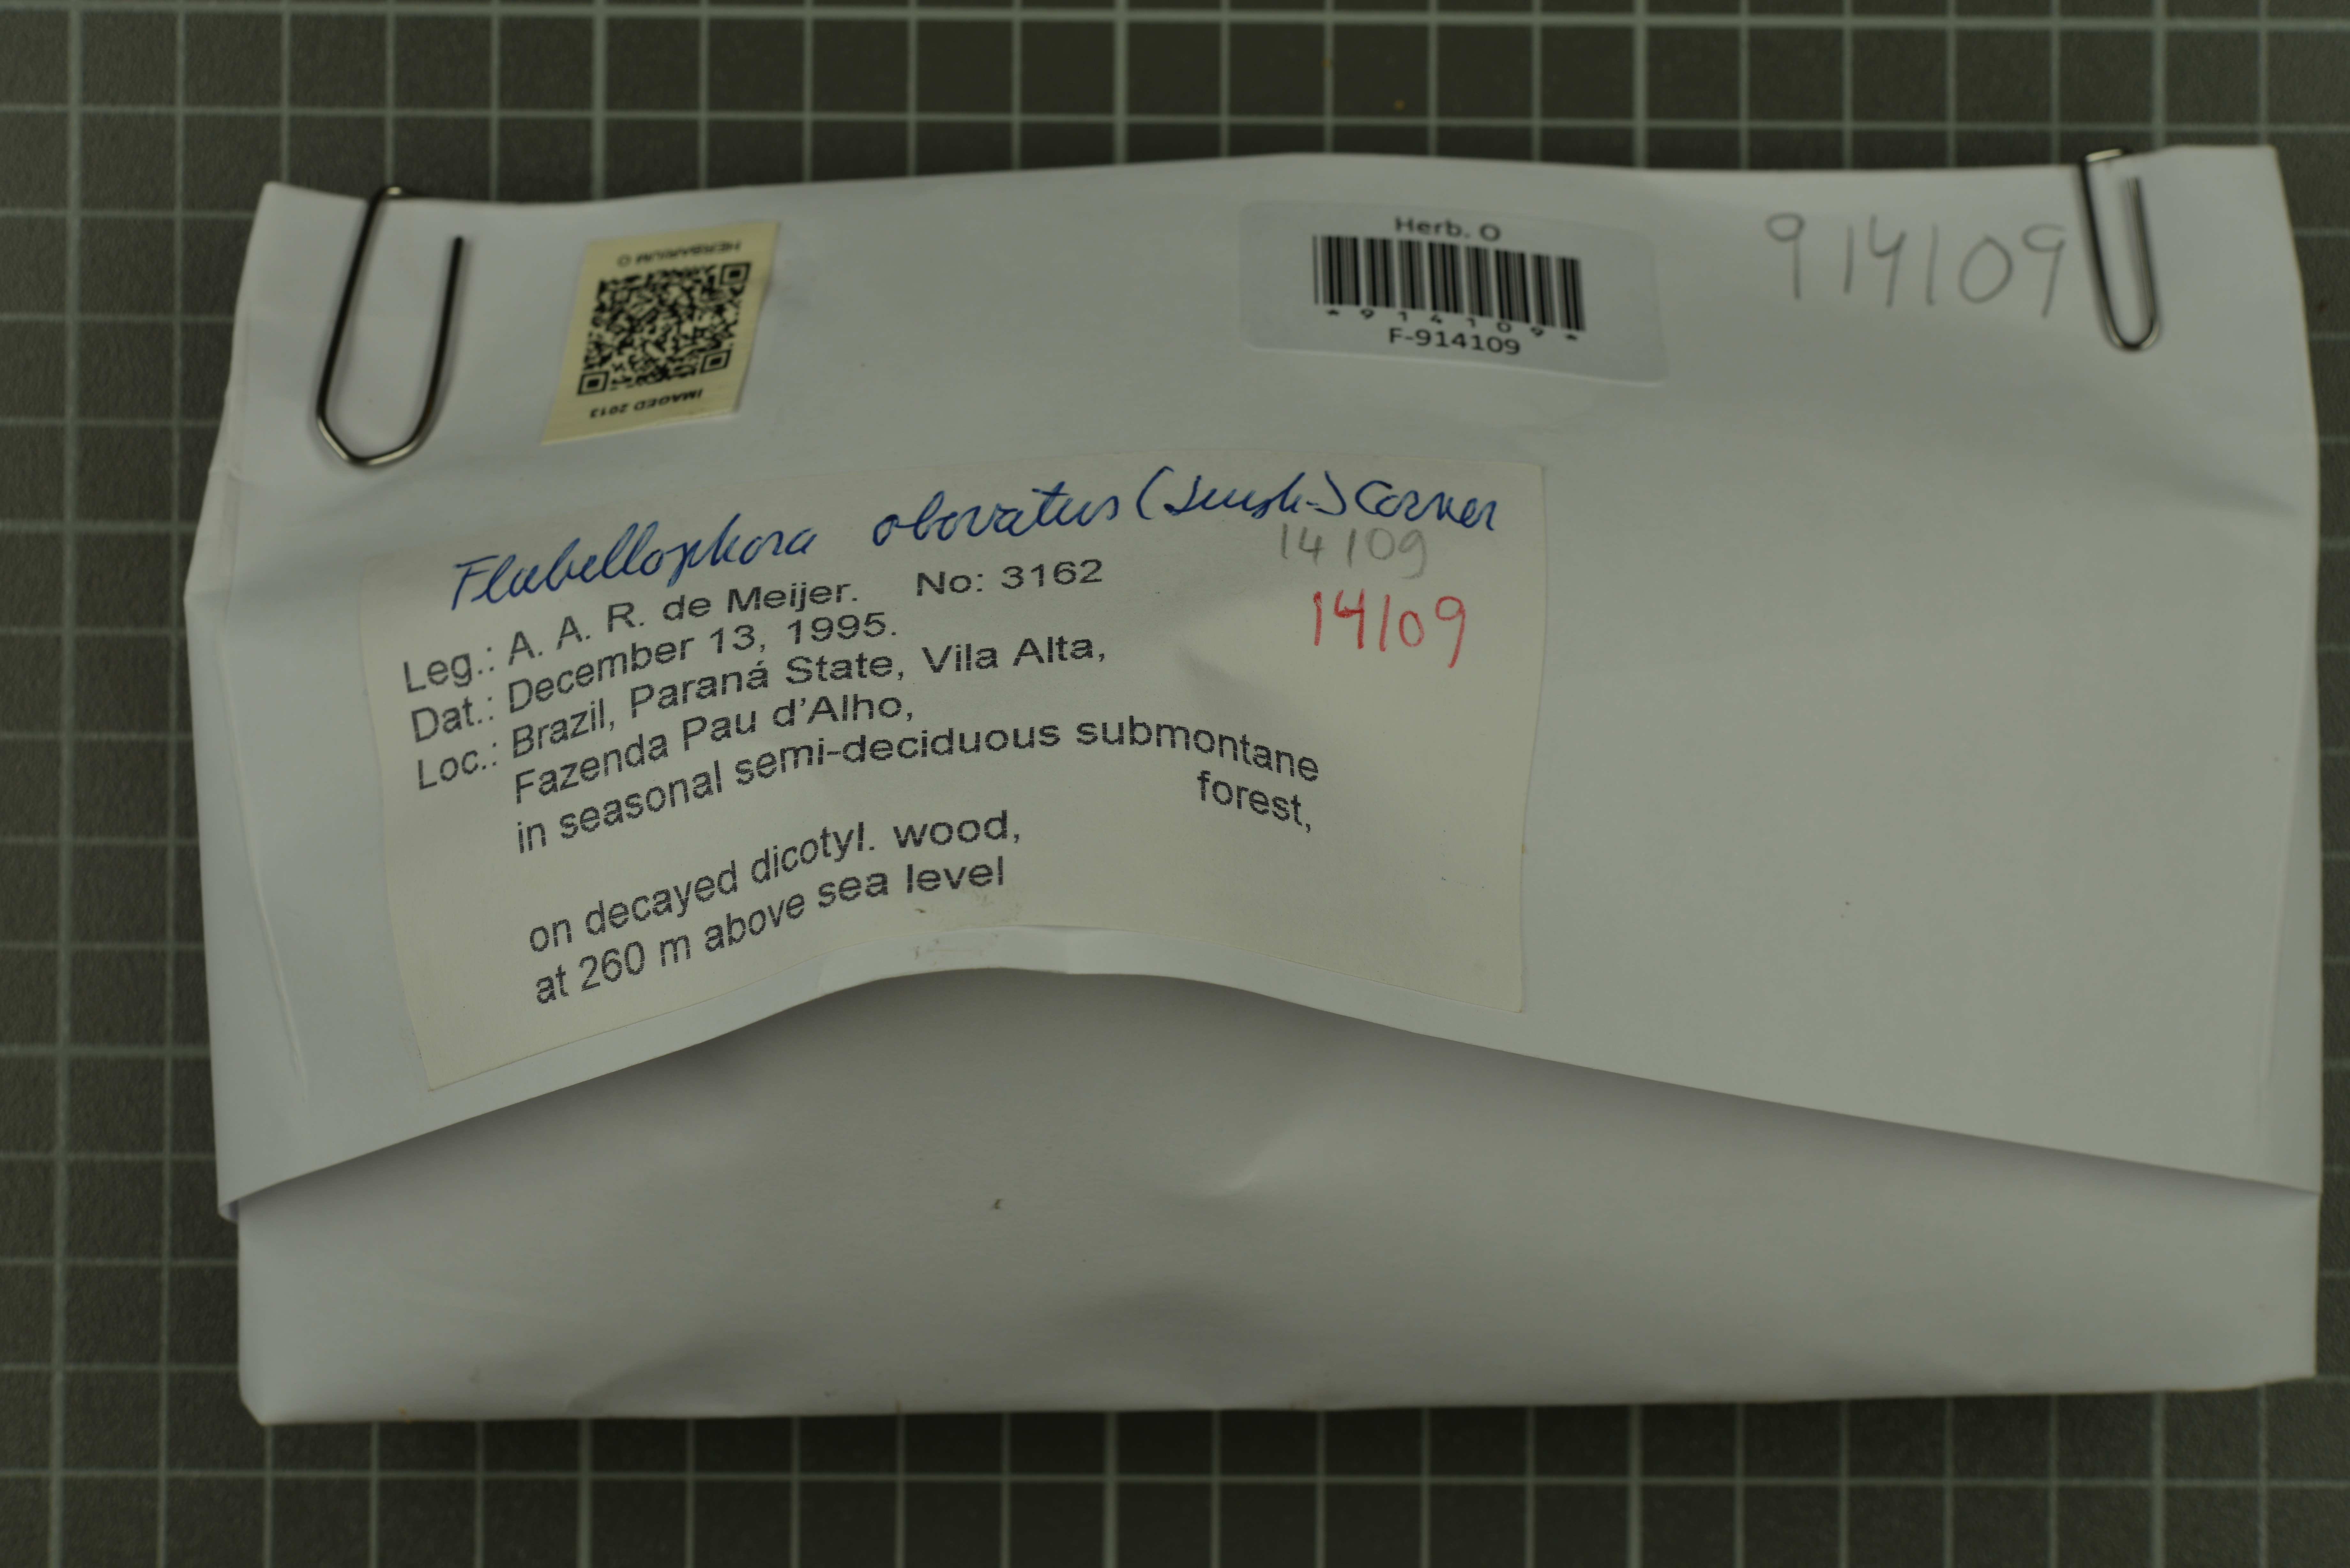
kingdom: Fungi
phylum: Basidiomycota
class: Agaricomycetes
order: Polyporales
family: Polyporaceae
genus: Microporellus
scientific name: Microporellus obovatus
